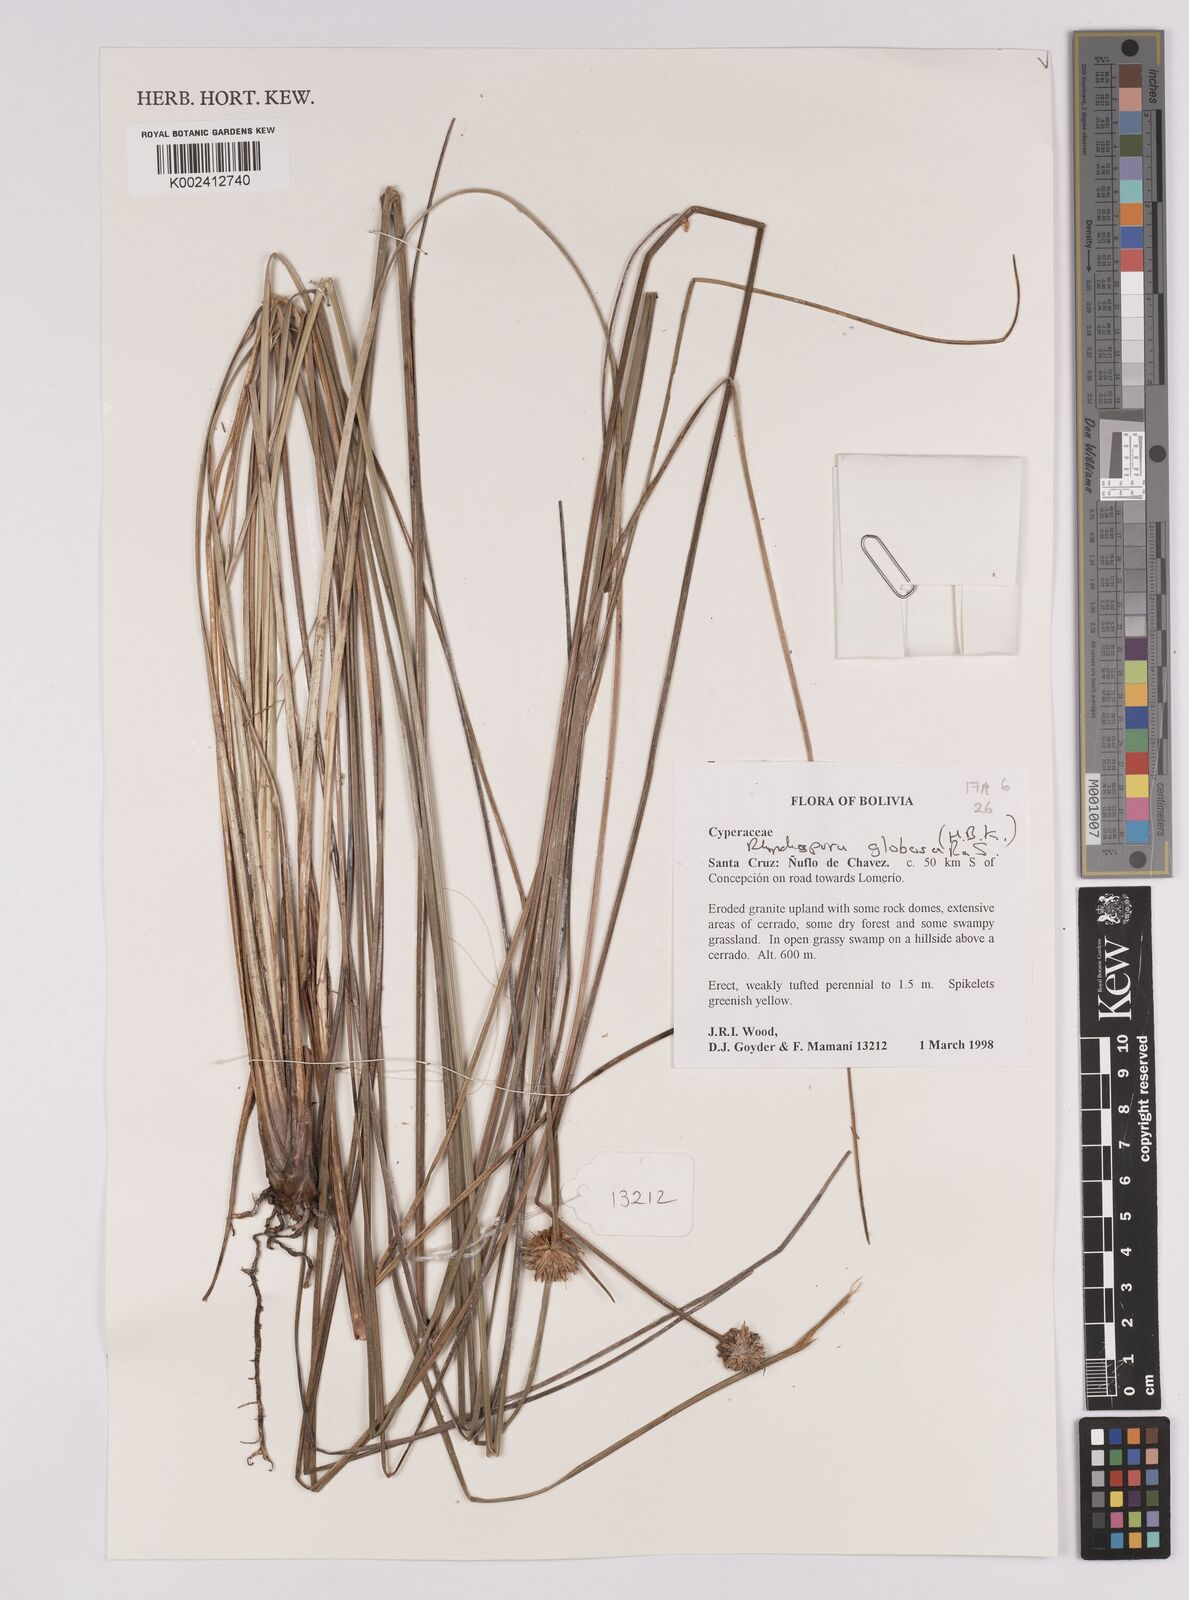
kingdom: Plantae
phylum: Tracheophyta
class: Liliopsida
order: Poales
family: Cyperaceae
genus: Rhynchospora
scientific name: Rhynchospora loefgrenii
